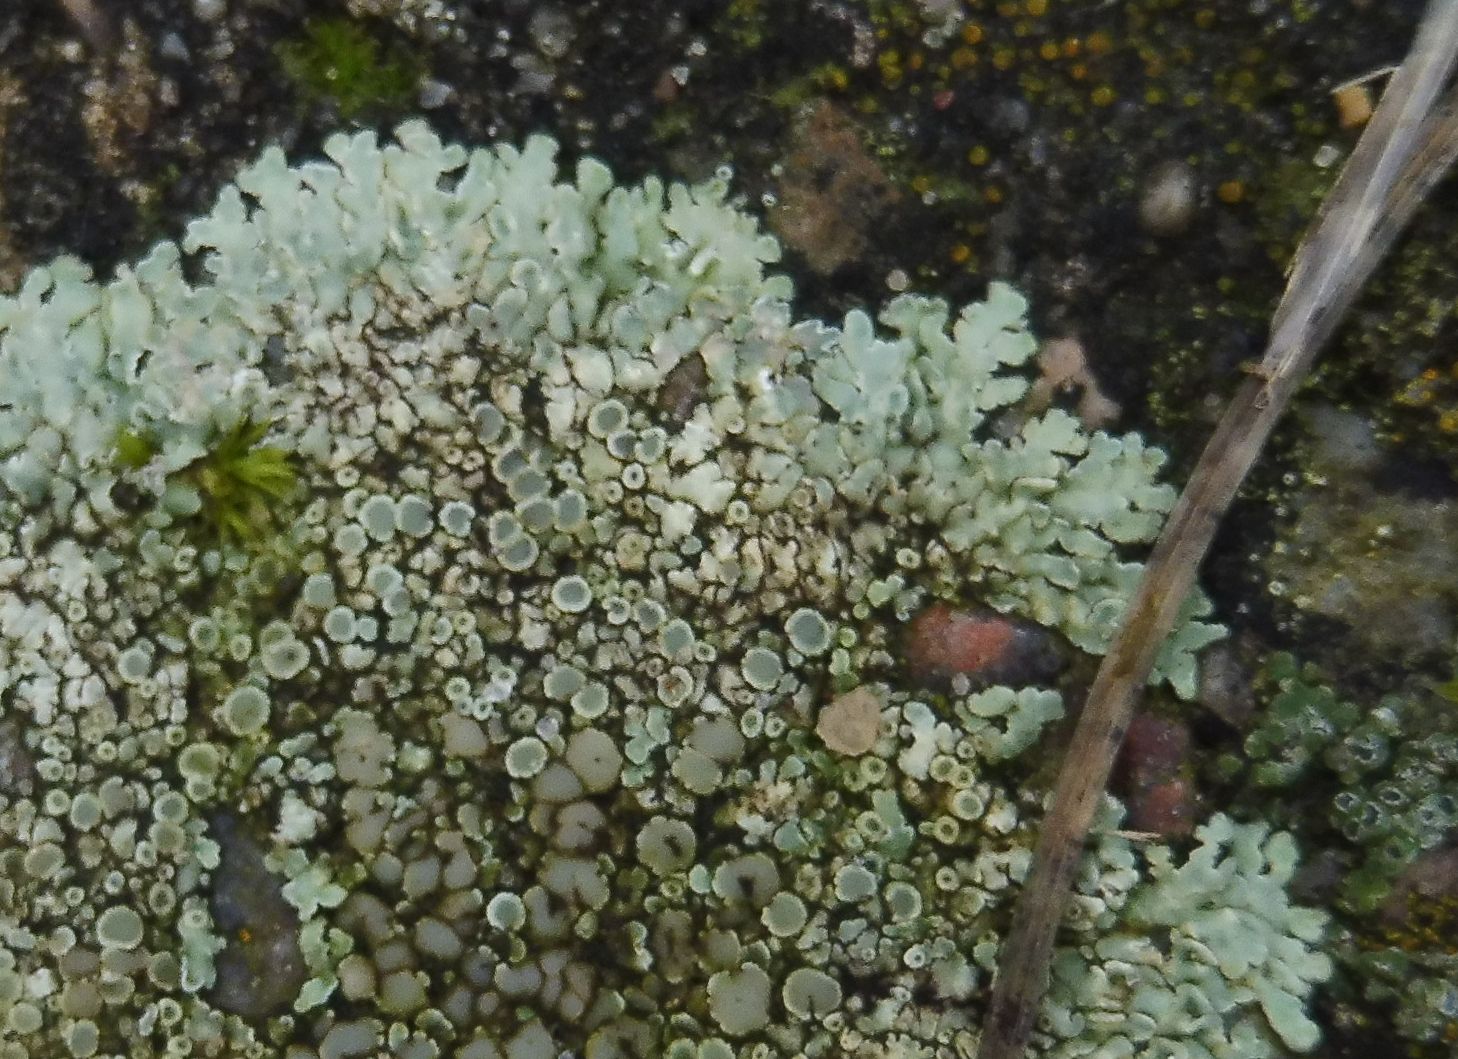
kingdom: Fungi
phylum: Ascomycota
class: Lecanoromycetes
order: Lecanorales
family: Lecanoraceae
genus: Protoparmeliopsis
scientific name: Protoparmeliopsis muralis
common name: randfliget kantskivelav
